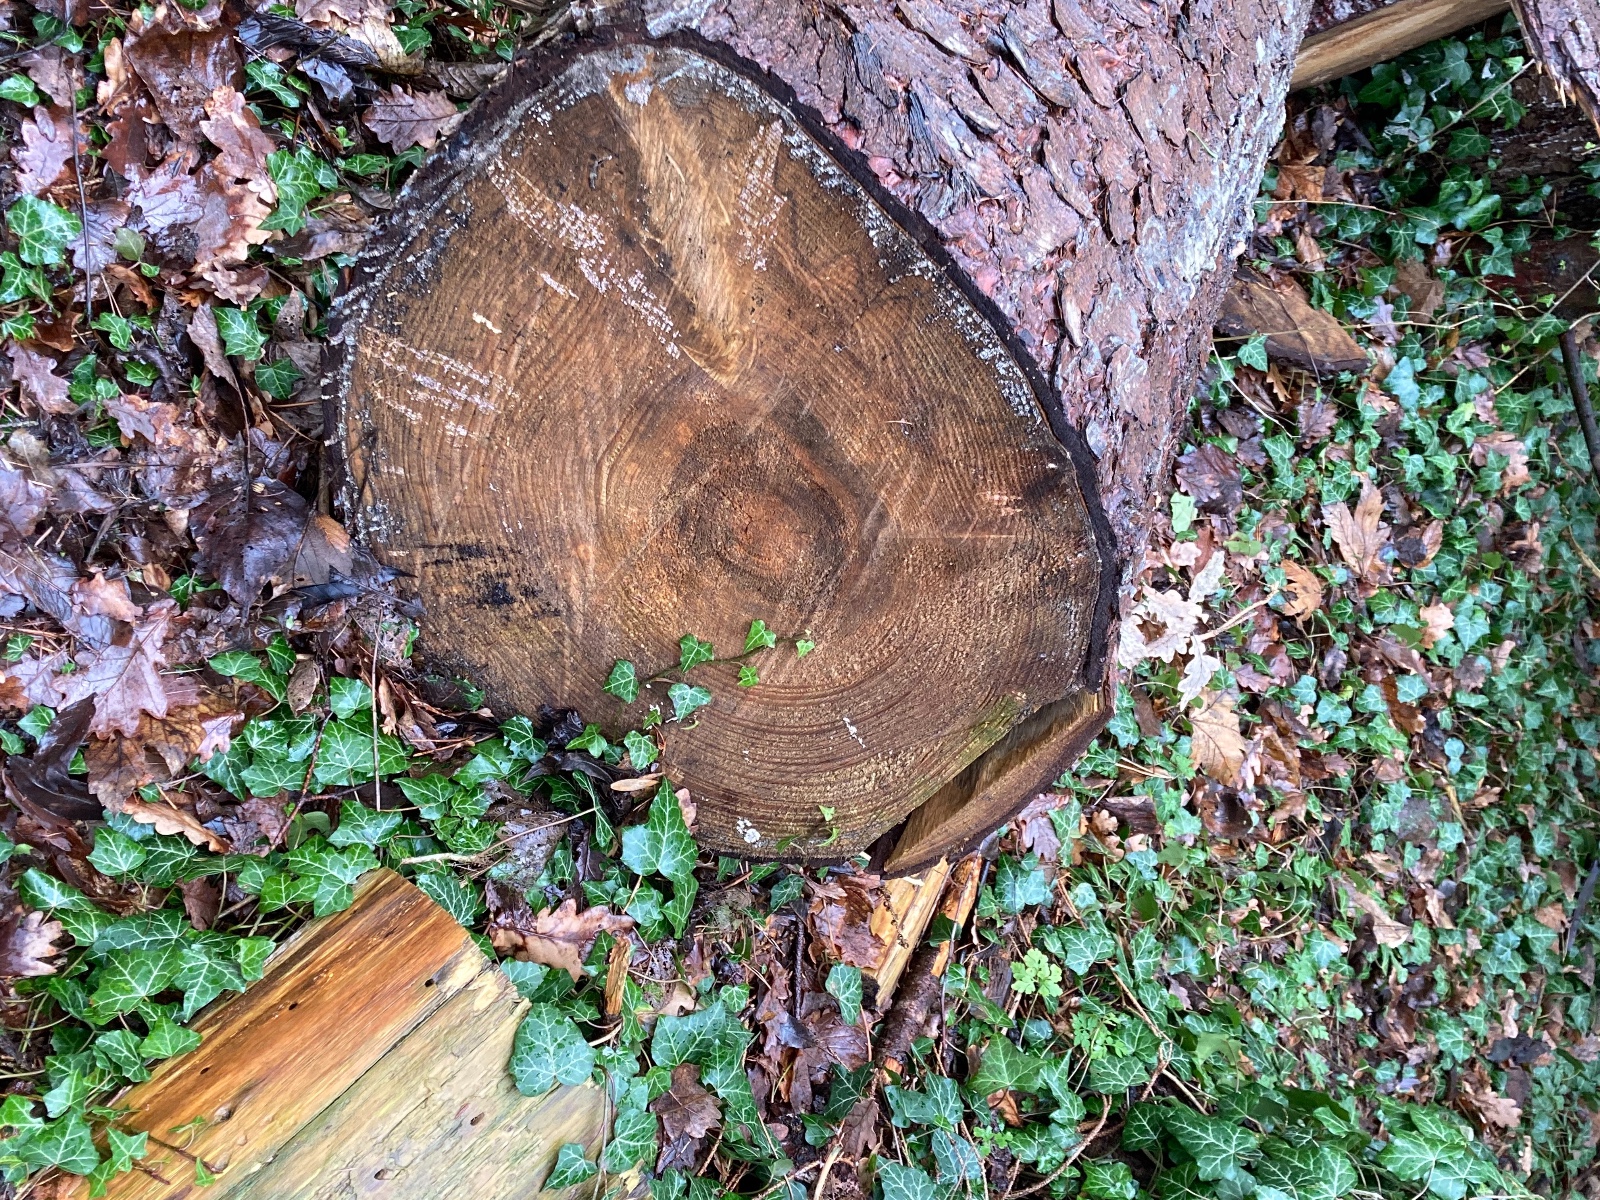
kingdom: Fungi
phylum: Basidiomycota
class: Agaricomycetes
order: Auriculariales
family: Auriculariaceae
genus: Exidia
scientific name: Exidia pithya
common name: gran-bævretop
